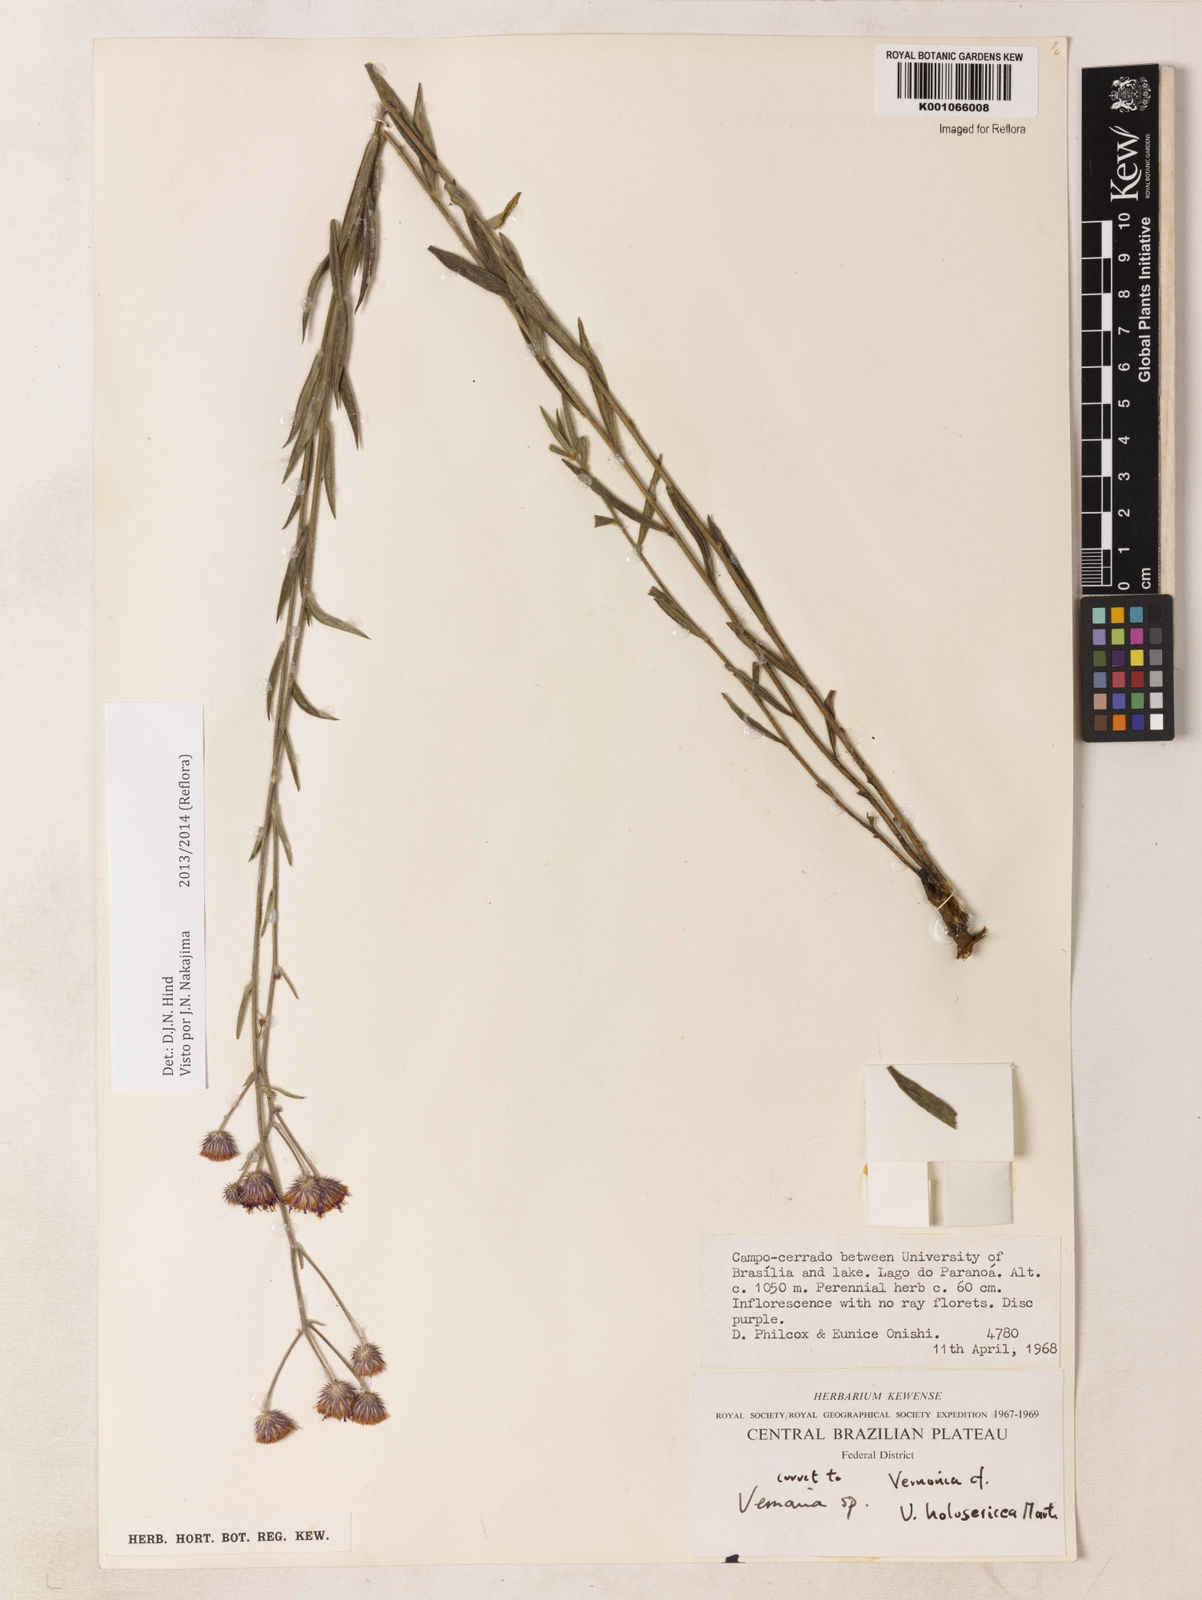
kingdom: Plantae
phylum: Tracheophyta
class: Magnoliopsida
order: Asterales
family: Asteraceae
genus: Echinocoryne
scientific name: Echinocoryne holosericea
